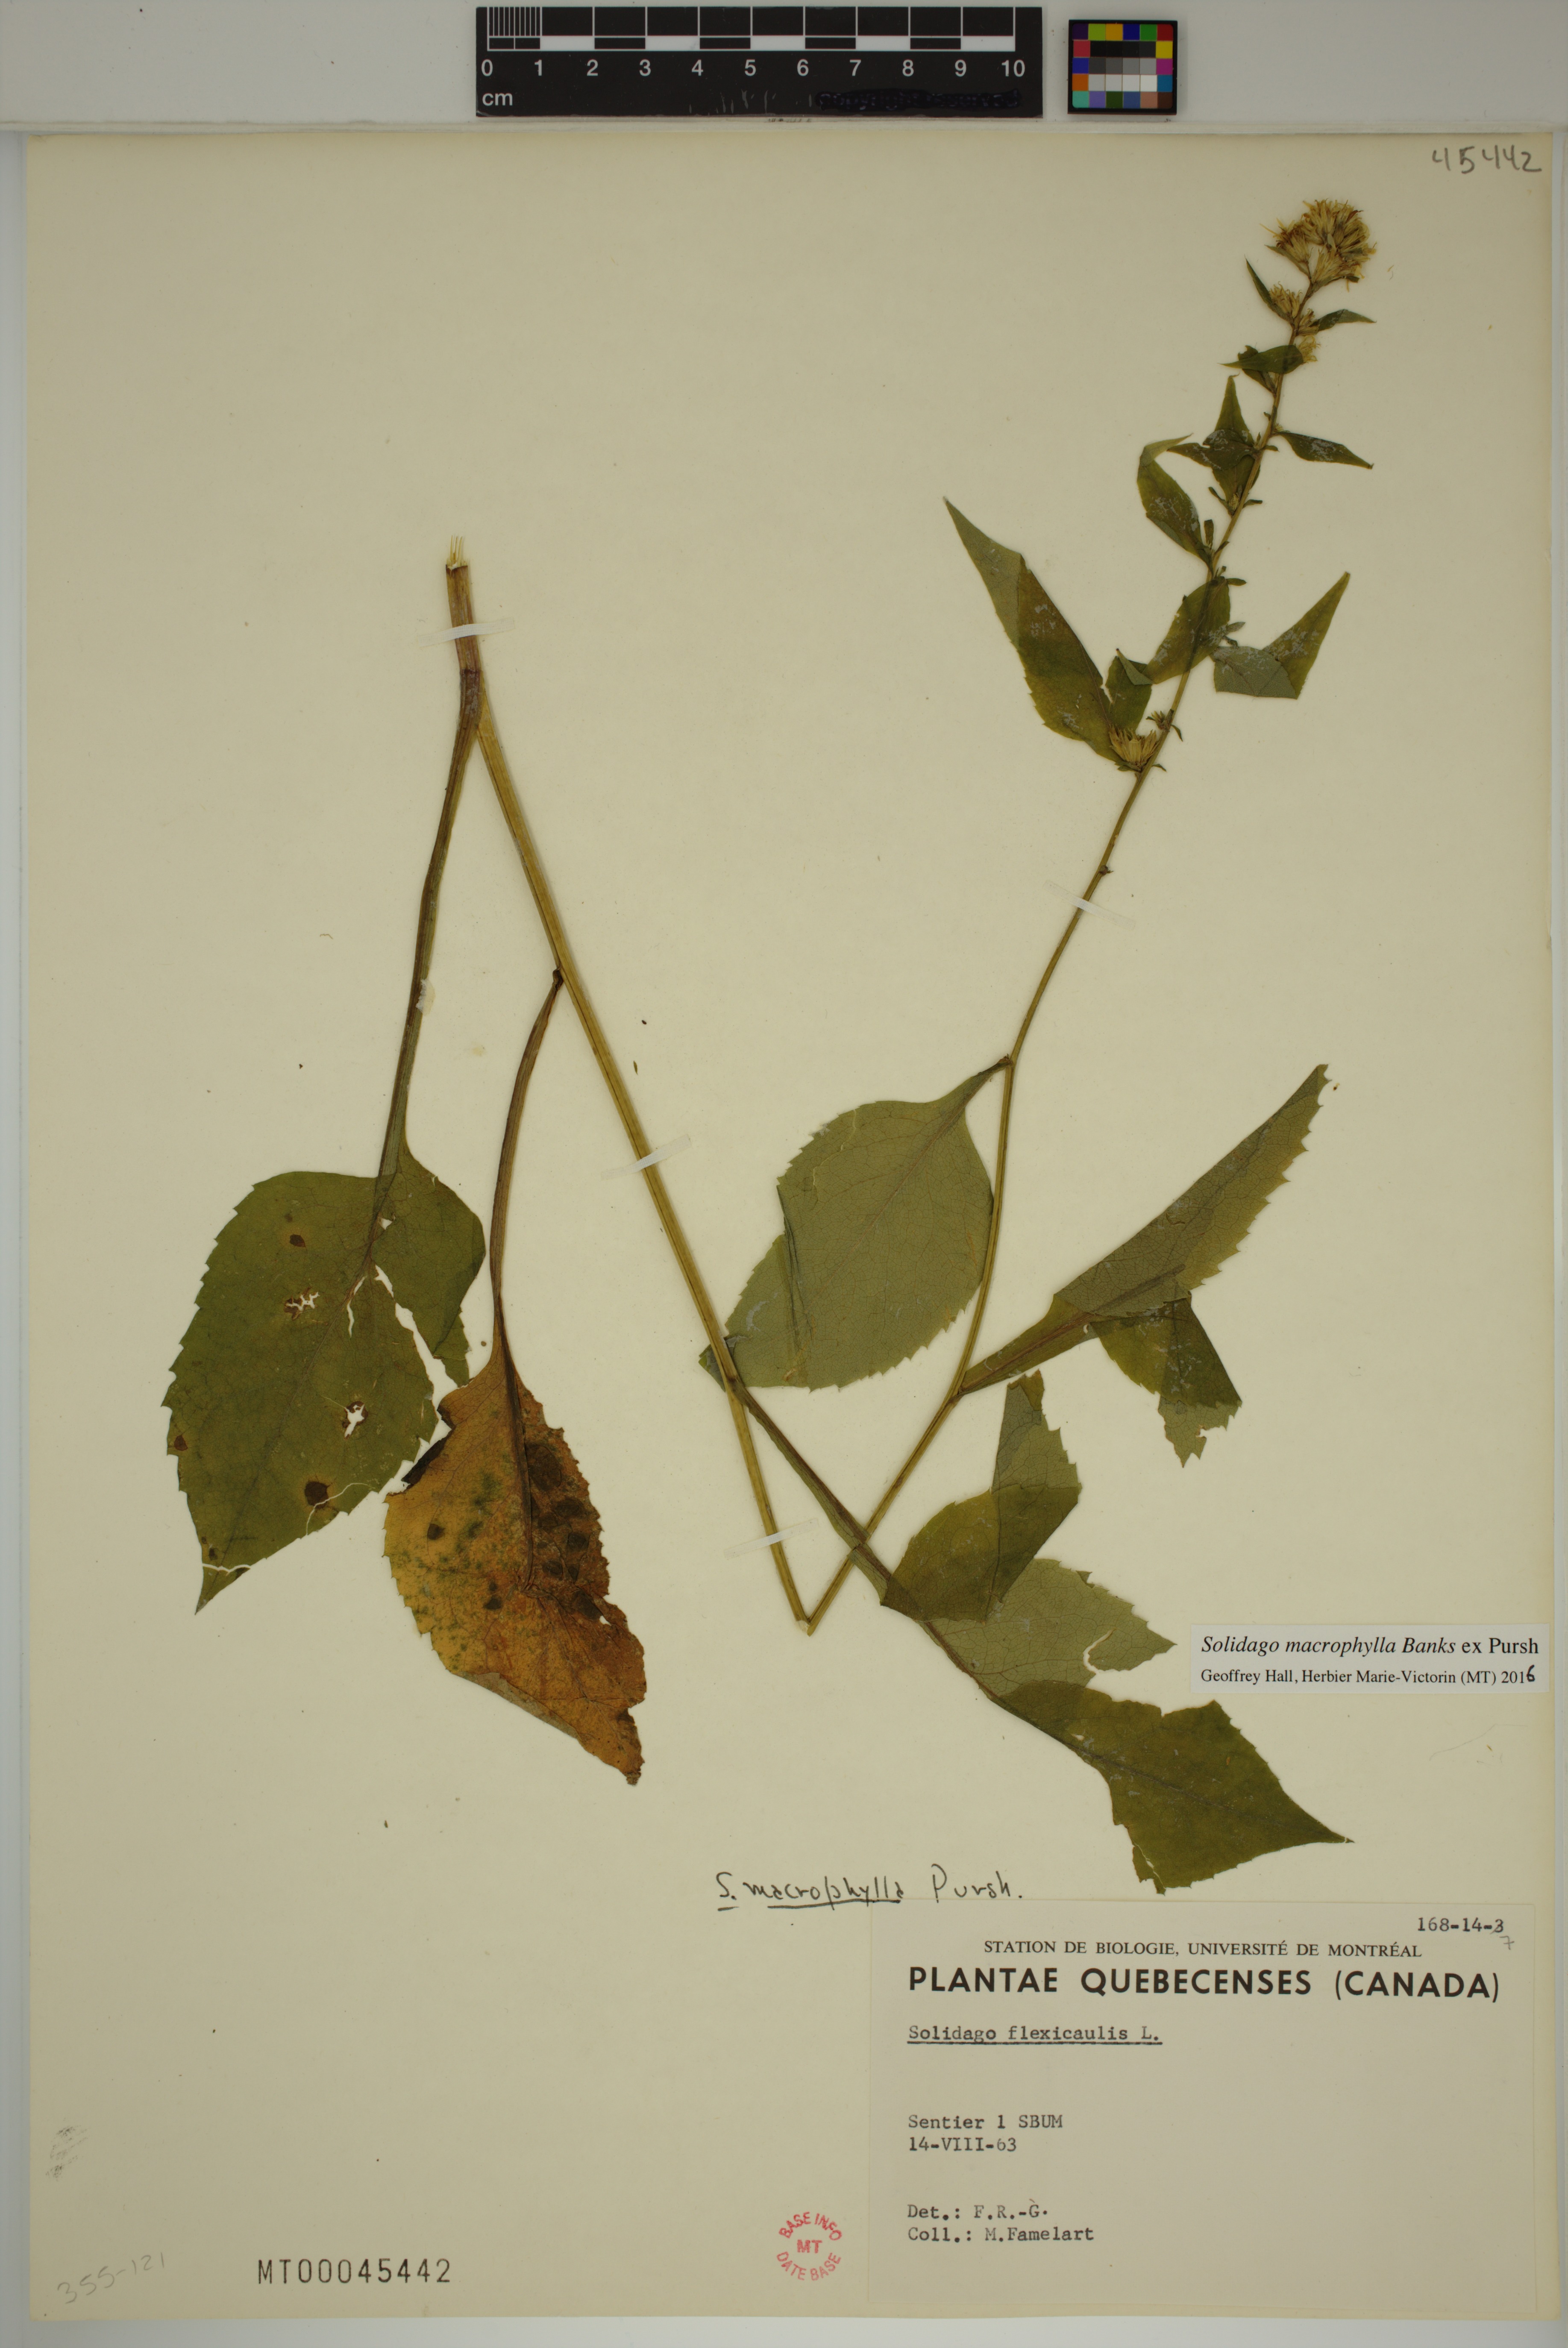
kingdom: Plantae
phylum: Tracheophyta
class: Magnoliopsida
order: Asterales
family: Asteraceae
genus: Solidago
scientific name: Solidago macrophylla
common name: Large-leaved goldenrod
